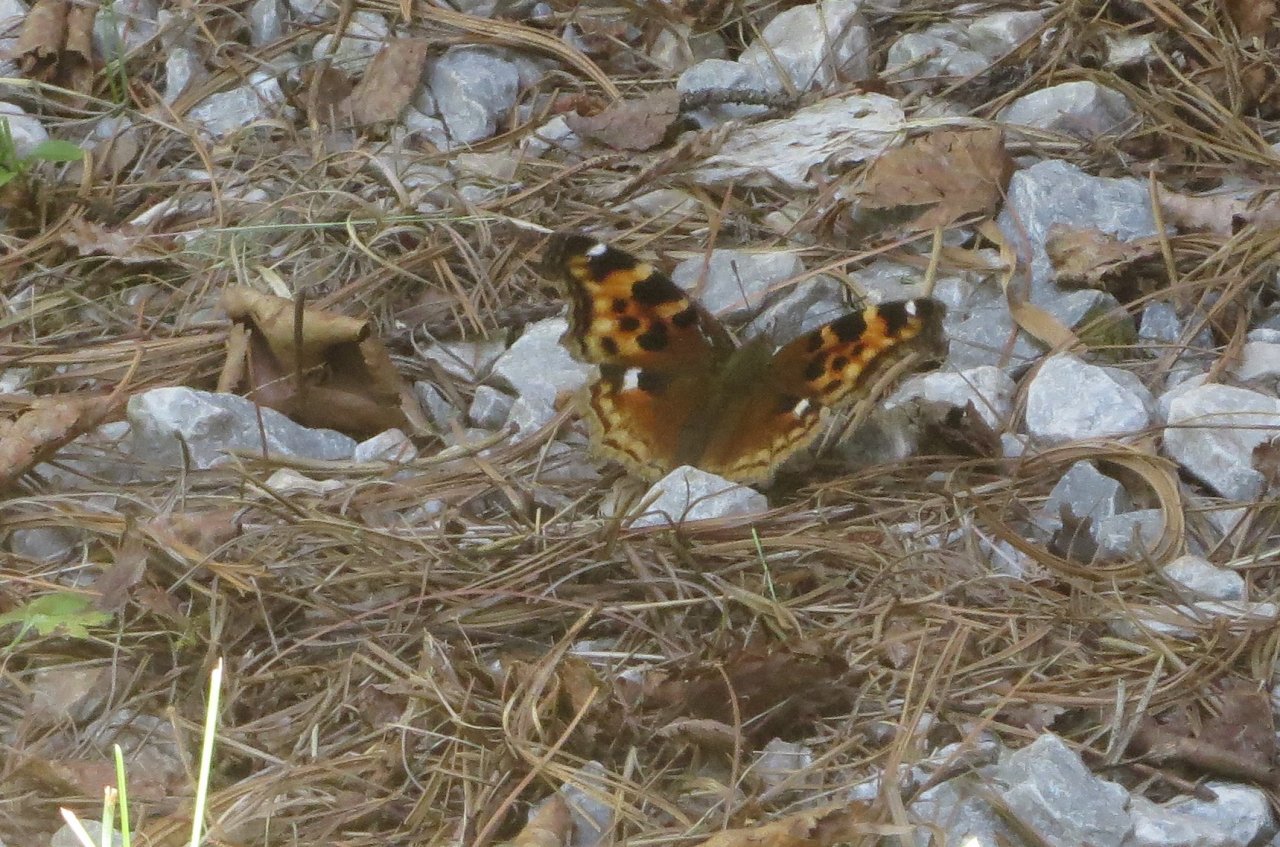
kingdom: Animalia
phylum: Arthropoda
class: Insecta
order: Lepidoptera
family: Nymphalidae
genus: Polygonia
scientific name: Polygonia vaualbum
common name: Compton Tortoiseshell
